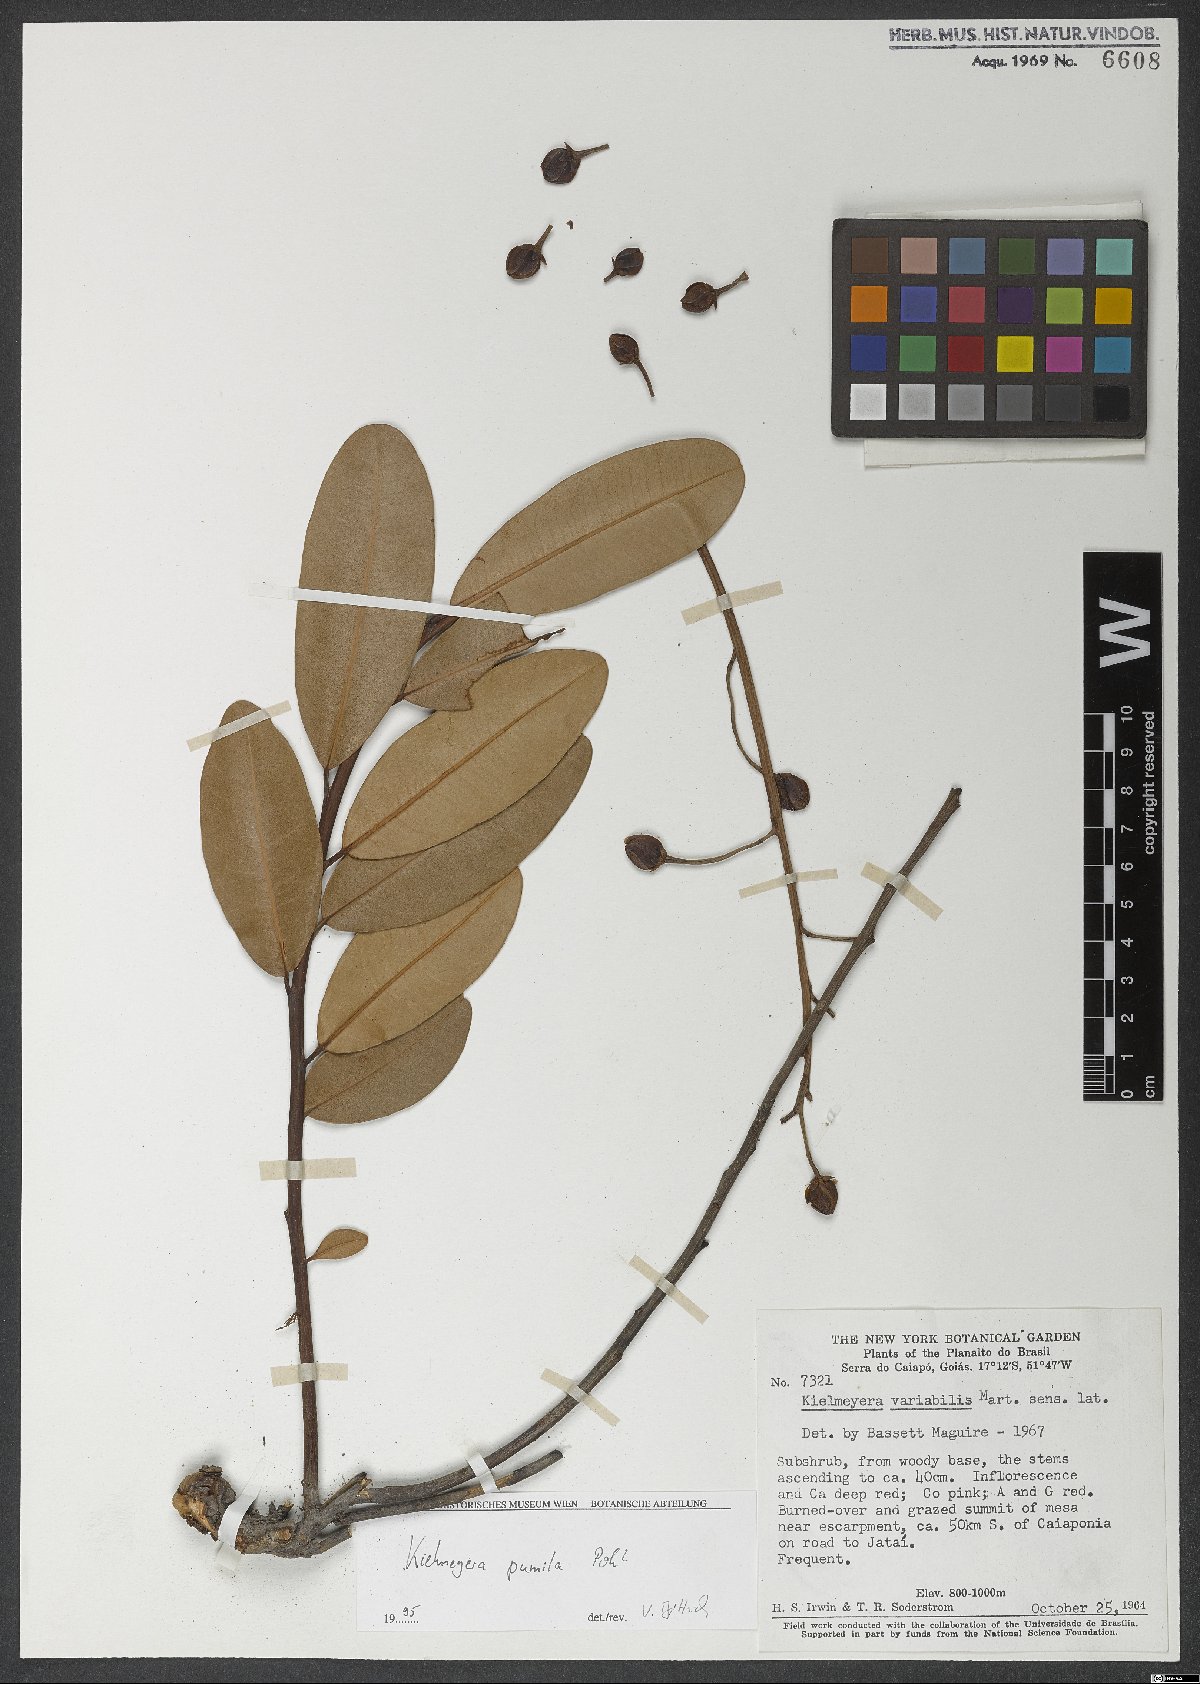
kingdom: Plantae
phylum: Tracheophyta
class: Magnoliopsida
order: Malpighiales
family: Calophyllaceae
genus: Kielmeyera
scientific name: Kielmeyera pumila
